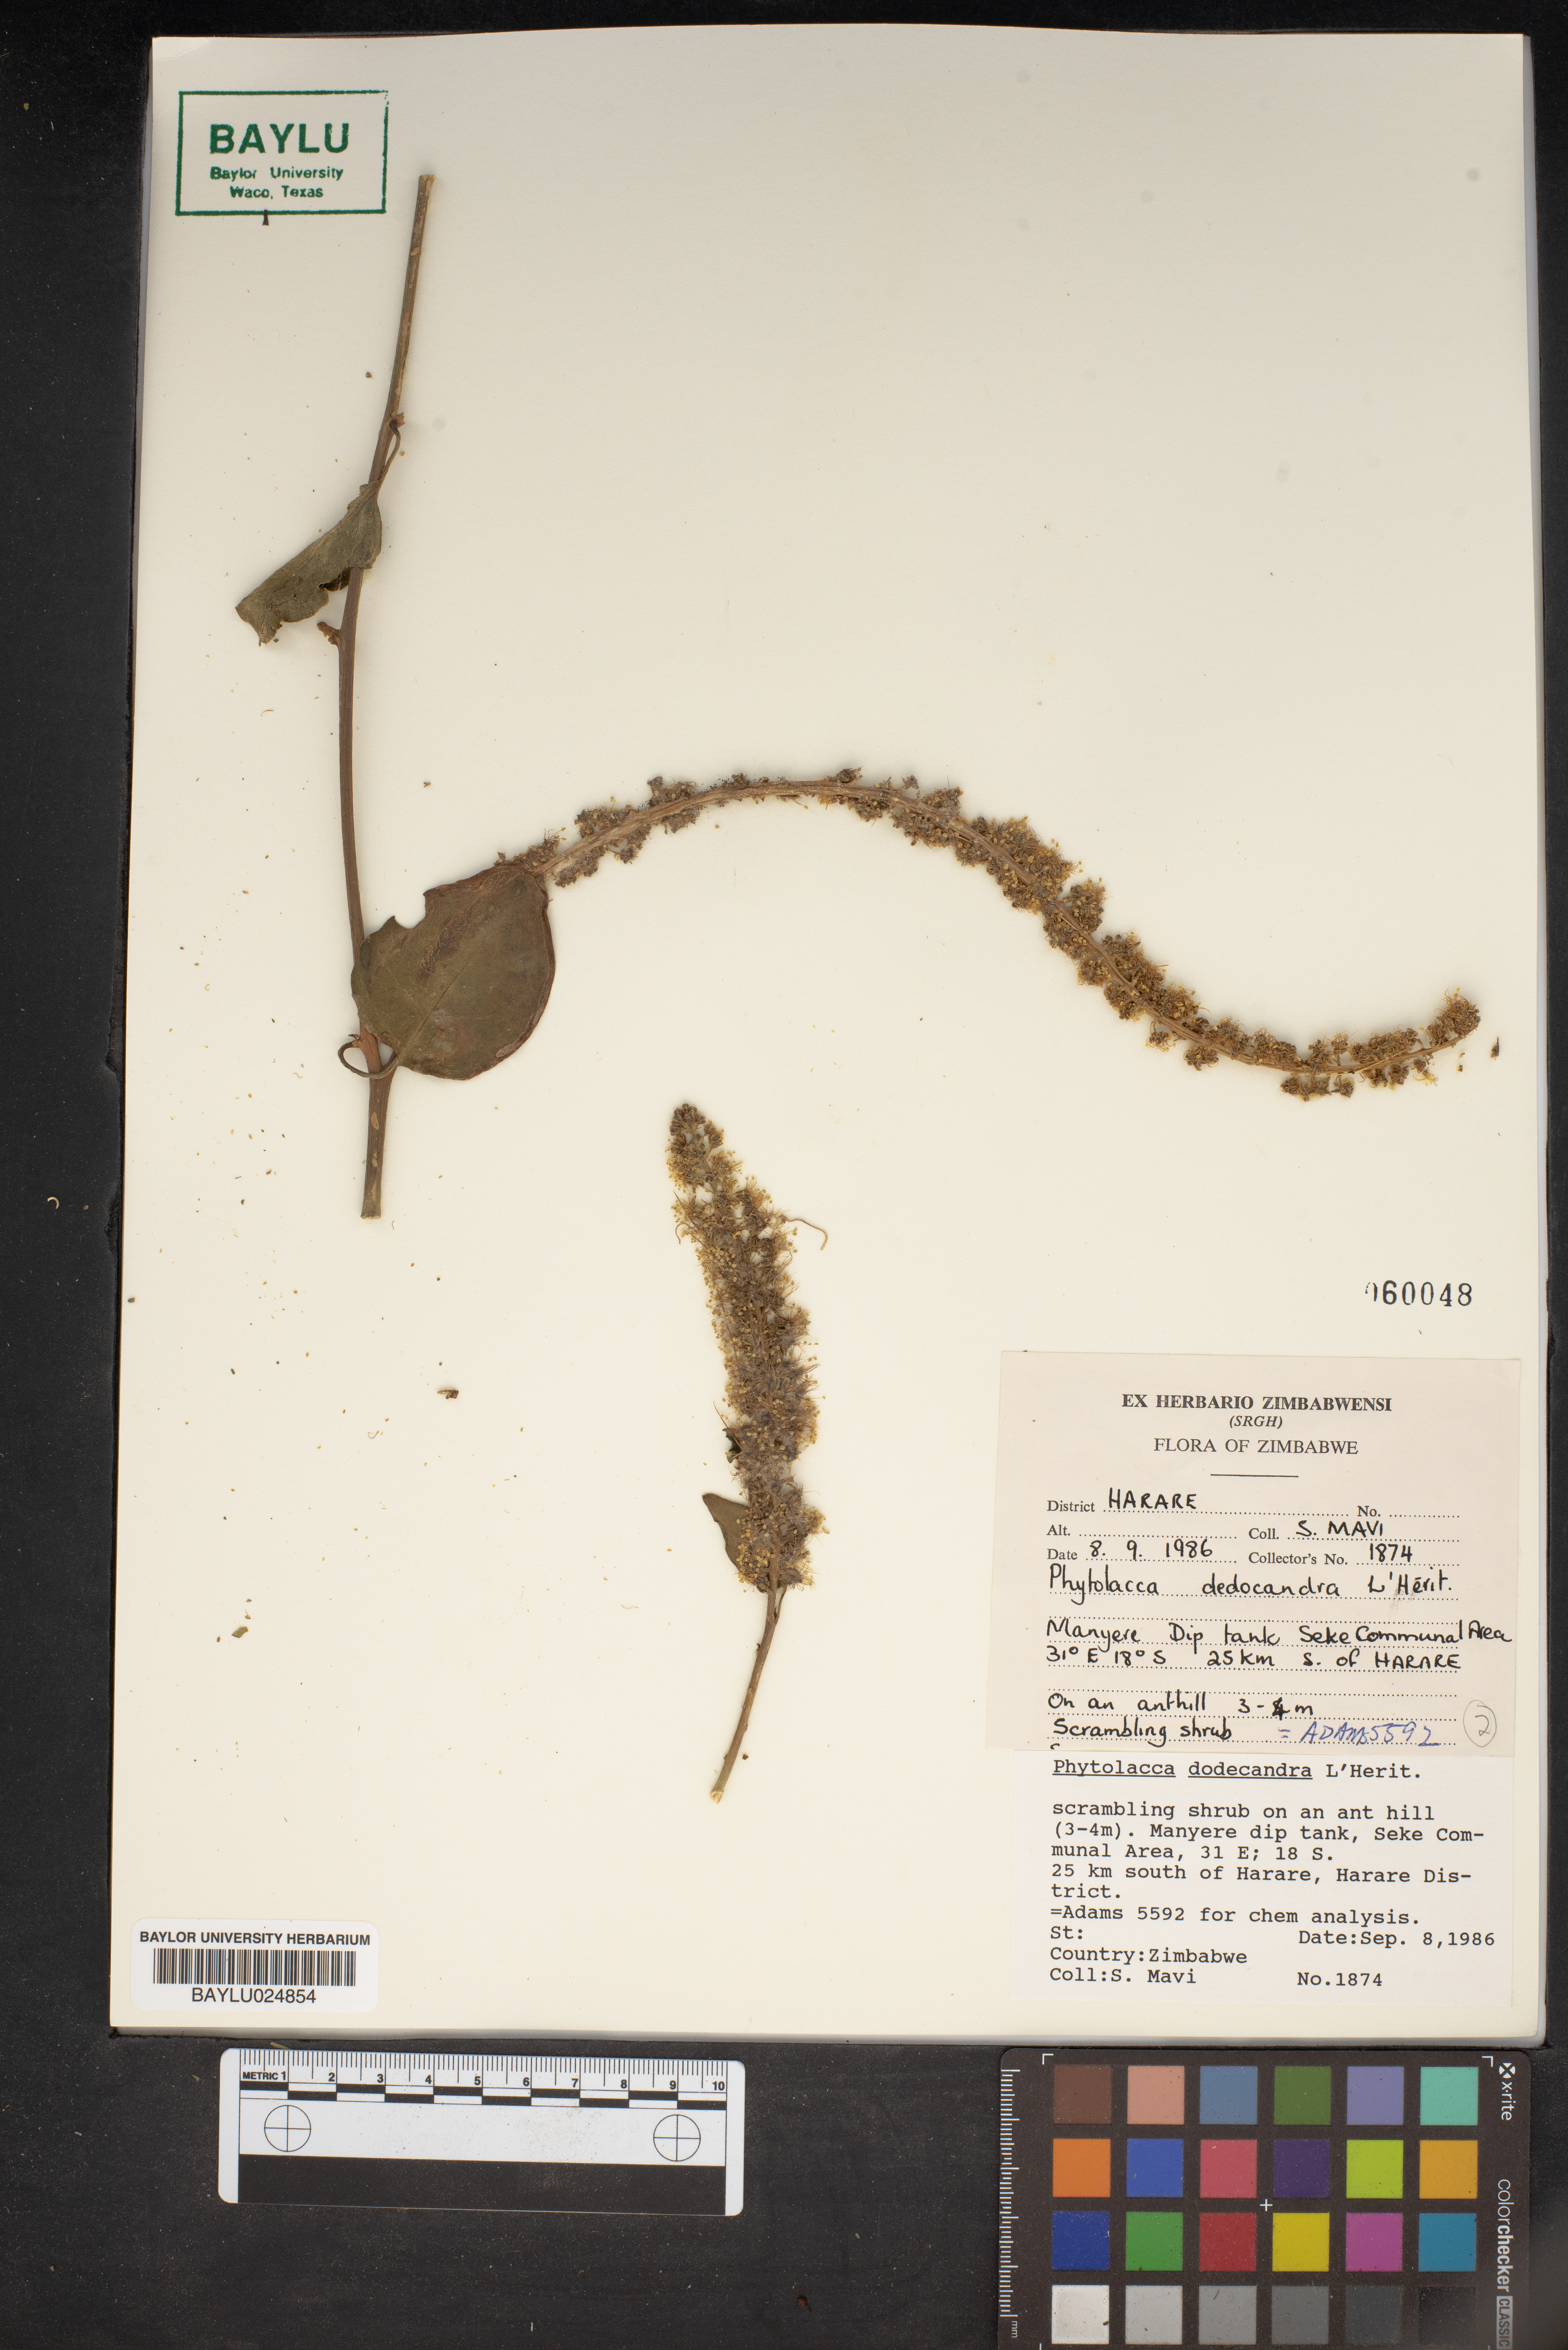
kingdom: Plantae
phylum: Tracheophyta
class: Magnoliopsida
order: Caryophyllales
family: Phytolaccaceae
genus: Phytolacca
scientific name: Phytolacca dodecandra
